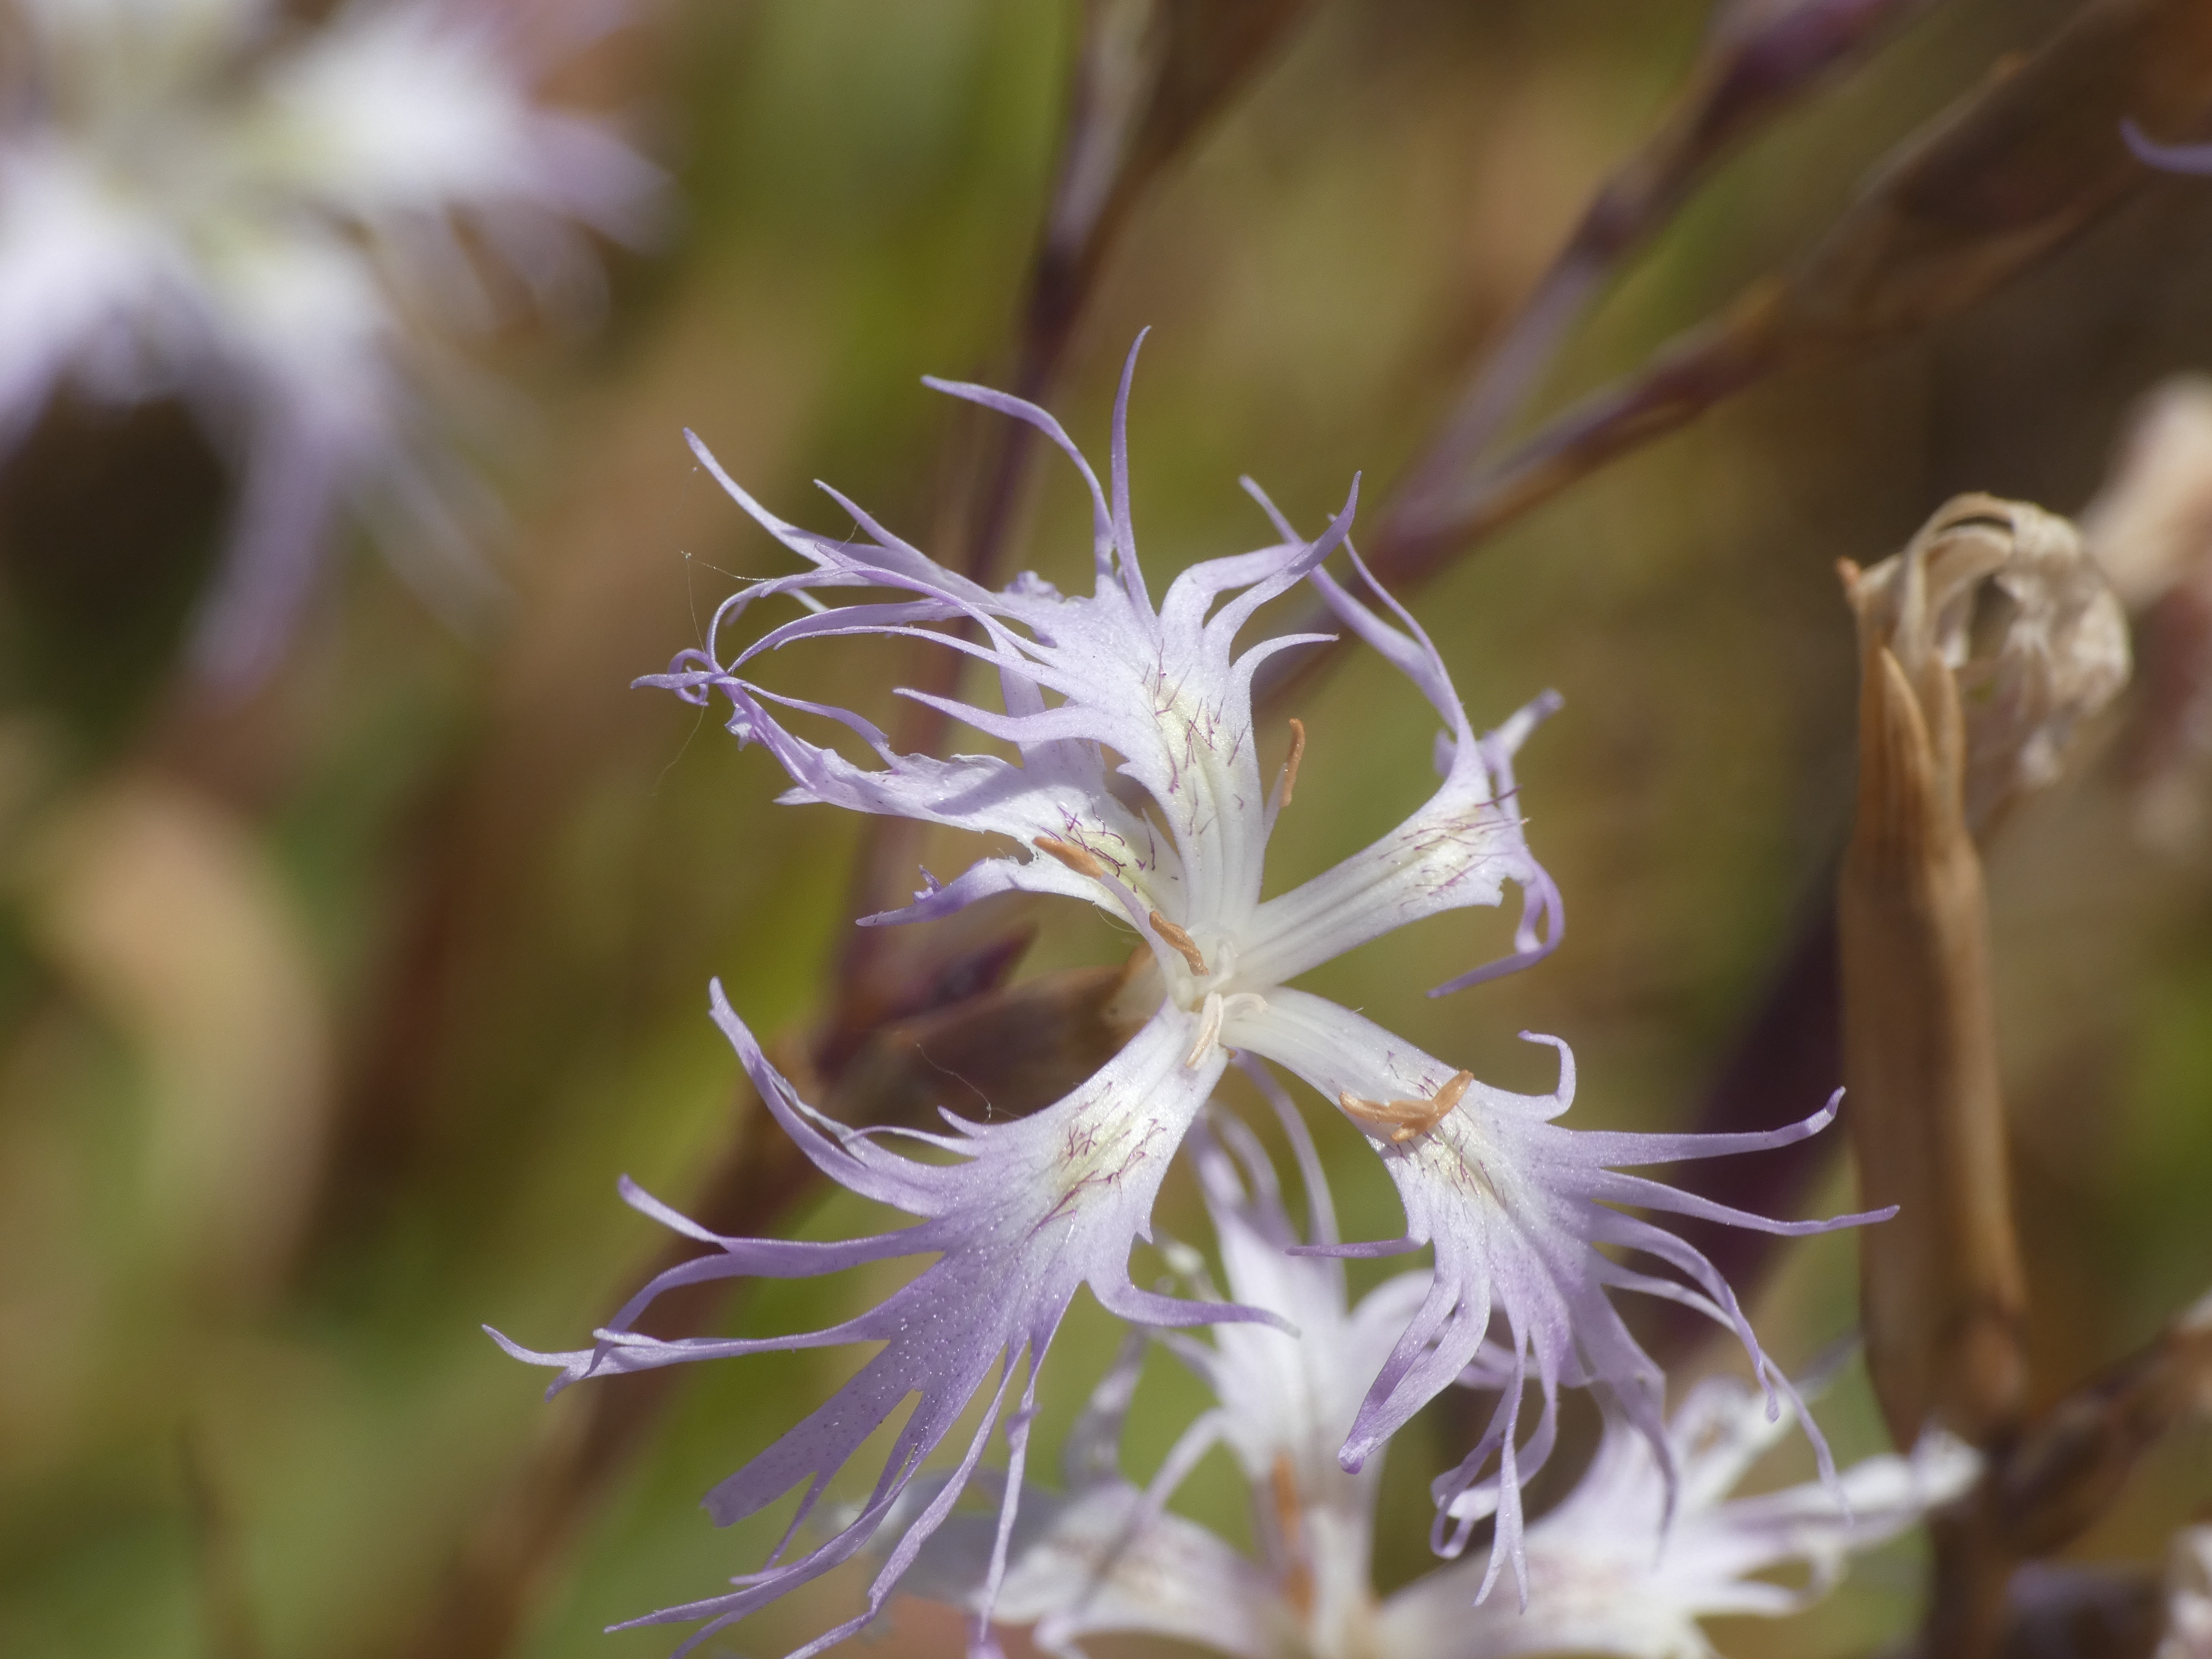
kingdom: Plantae
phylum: Tracheophyta
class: Magnoliopsida
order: Caryophyllales
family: Caryophyllaceae
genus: Dianthus
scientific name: Dianthus superbus
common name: Strand-nellike
